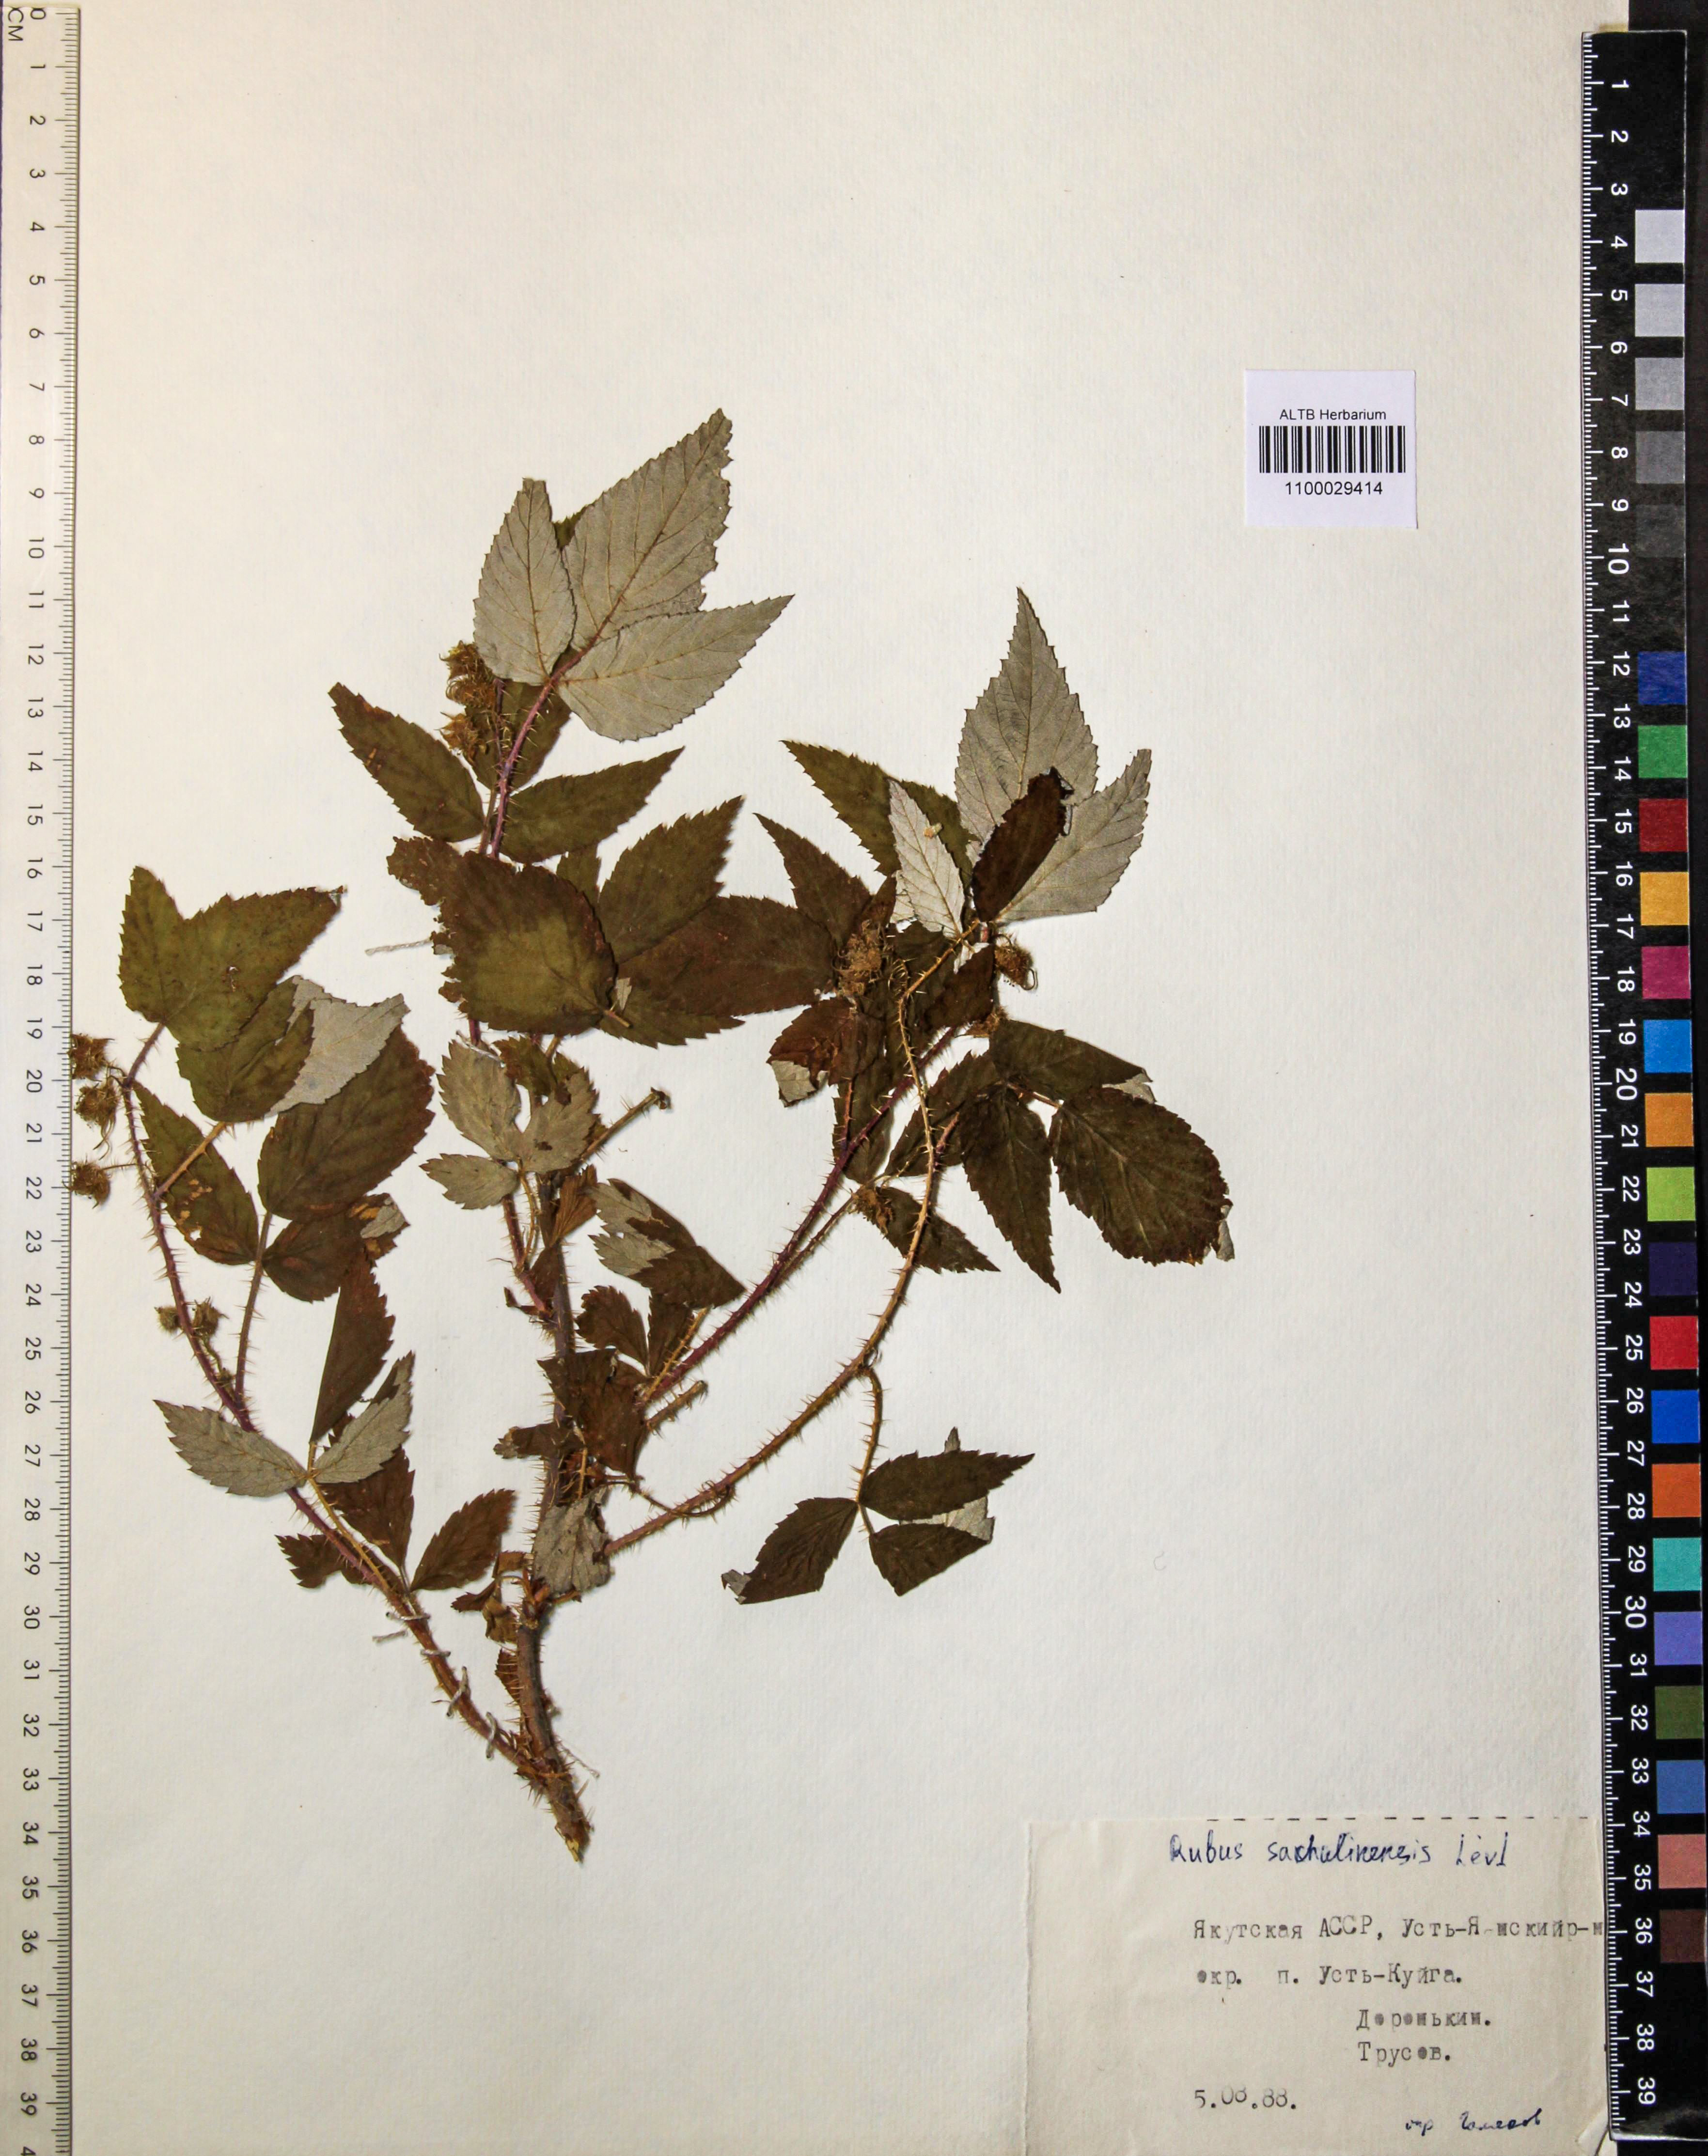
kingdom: Plantae
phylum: Tracheophyta
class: Magnoliopsida
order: Rosales
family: Rosaceae
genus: Rubus
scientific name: Rubus sachalinensis
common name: Red raspberry
